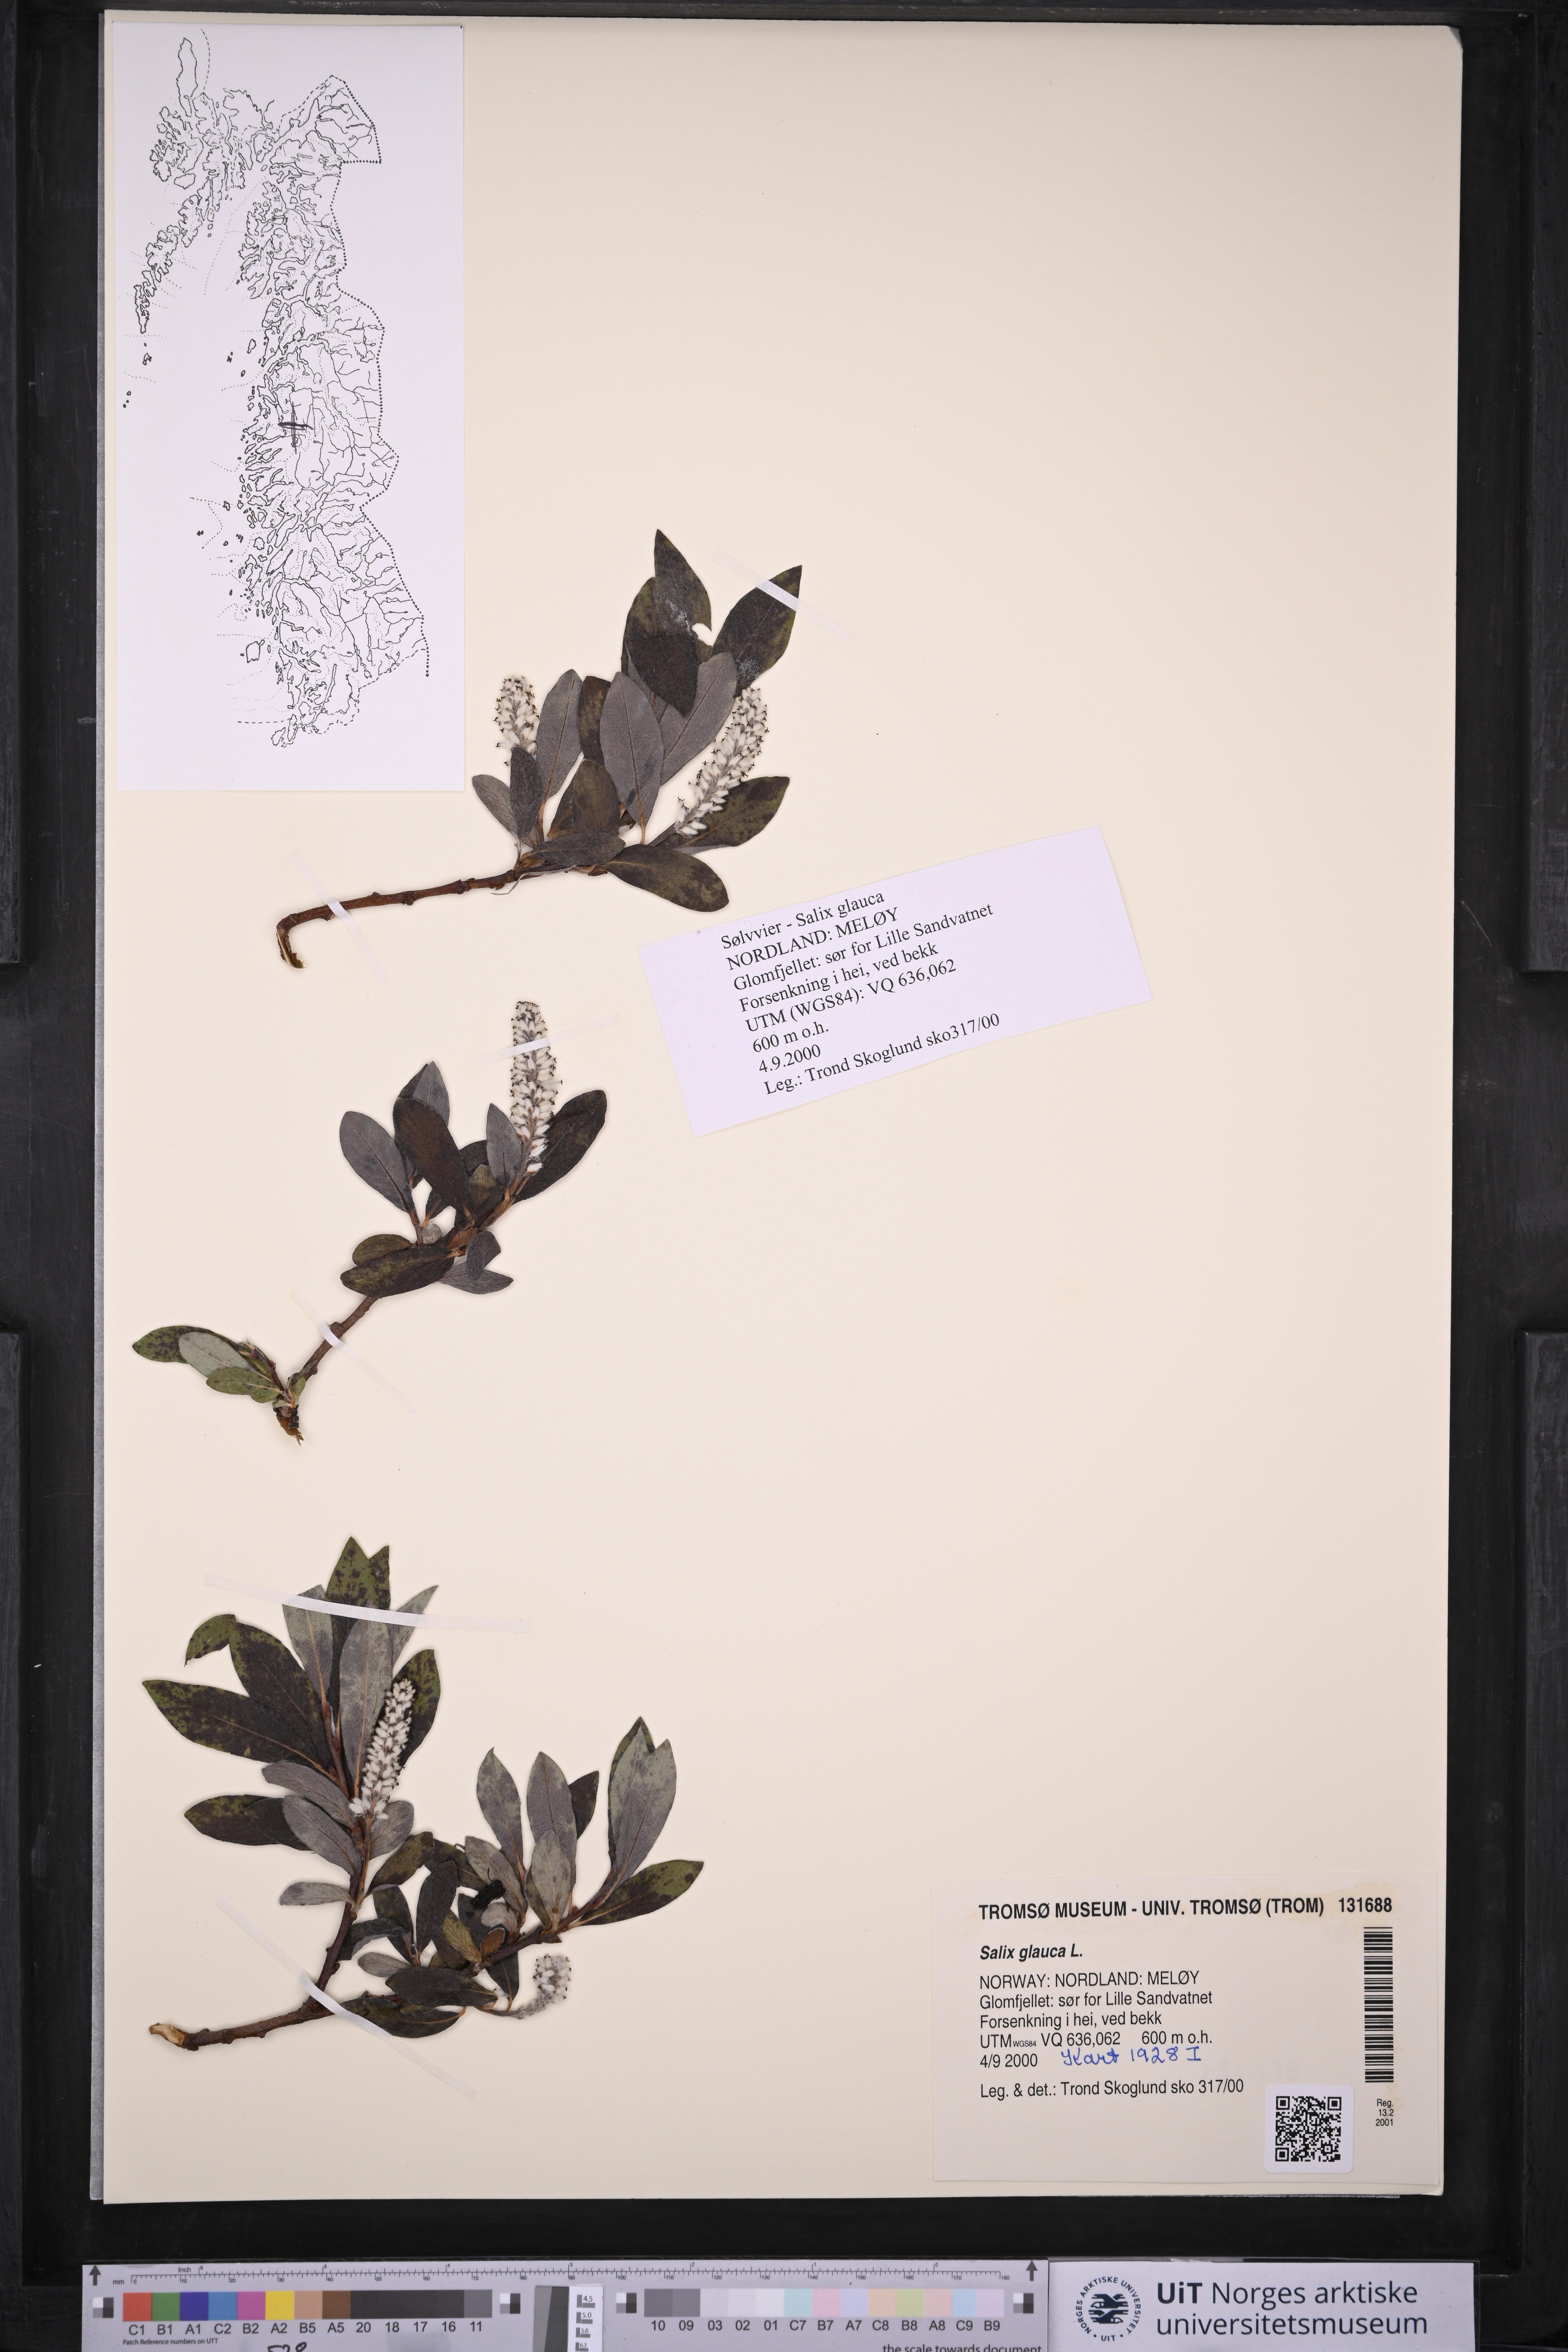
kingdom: Plantae
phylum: Tracheophyta
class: Magnoliopsida
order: Malpighiales
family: Salicaceae
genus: Salix
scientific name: Salix glauca
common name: Glaucous willow
